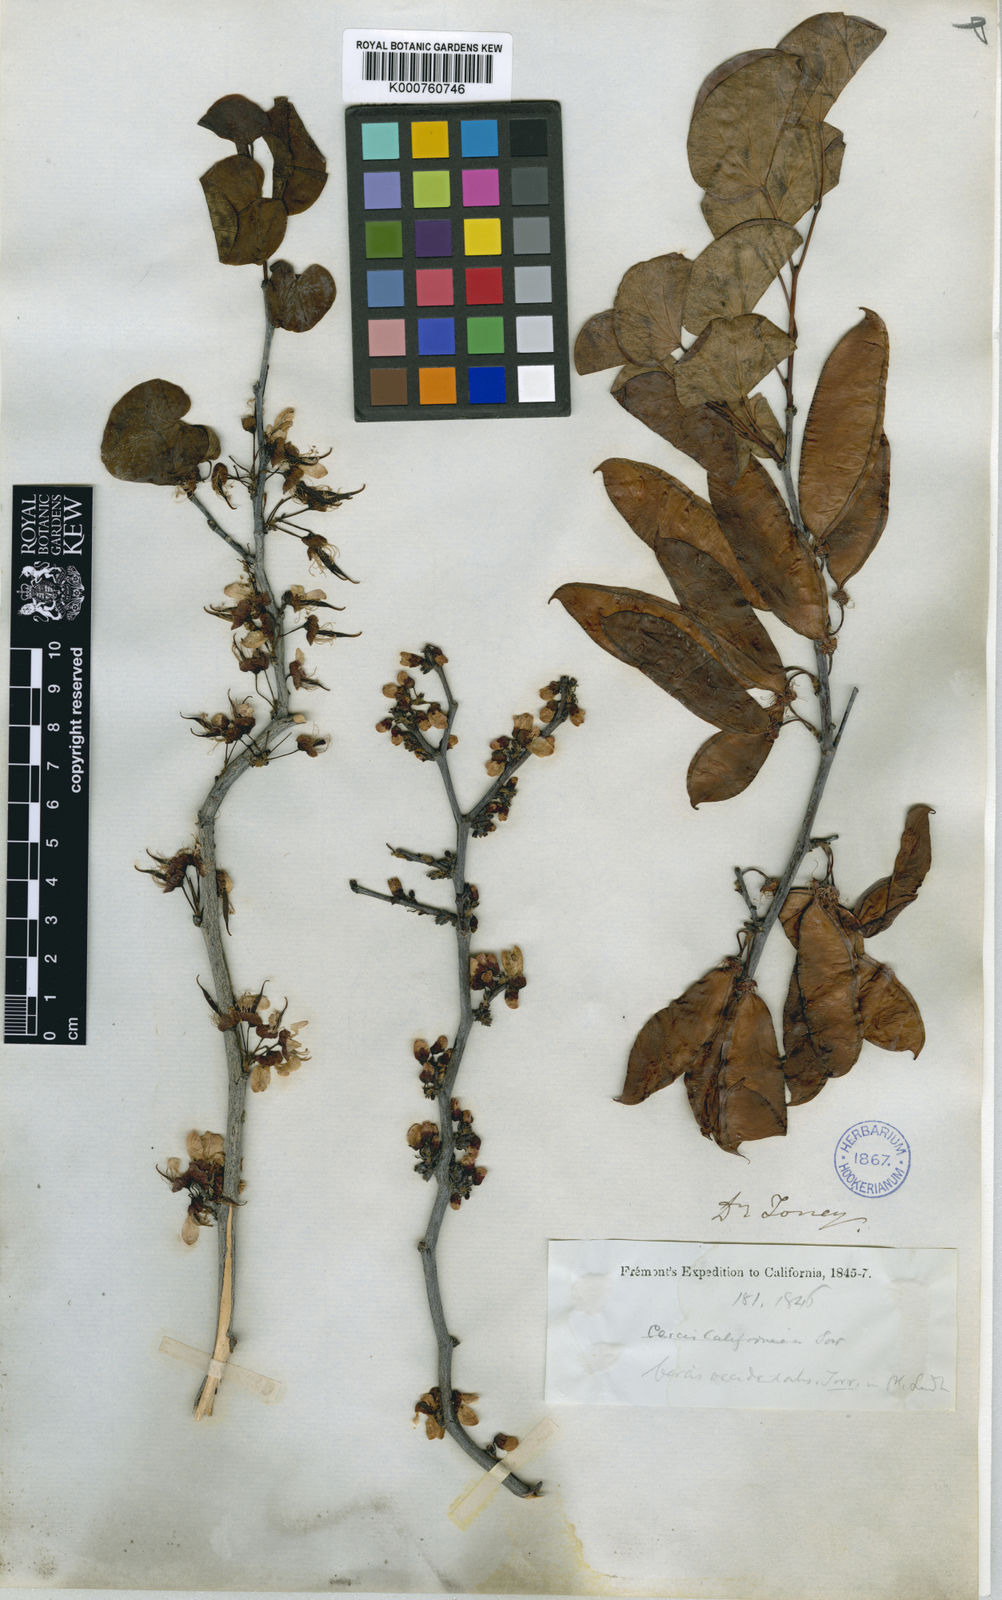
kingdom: Plantae
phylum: Tracheophyta
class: Magnoliopsida
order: Fabales
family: Fabaceae
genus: Cercis
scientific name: Cercis occidentalis
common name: California redbud
